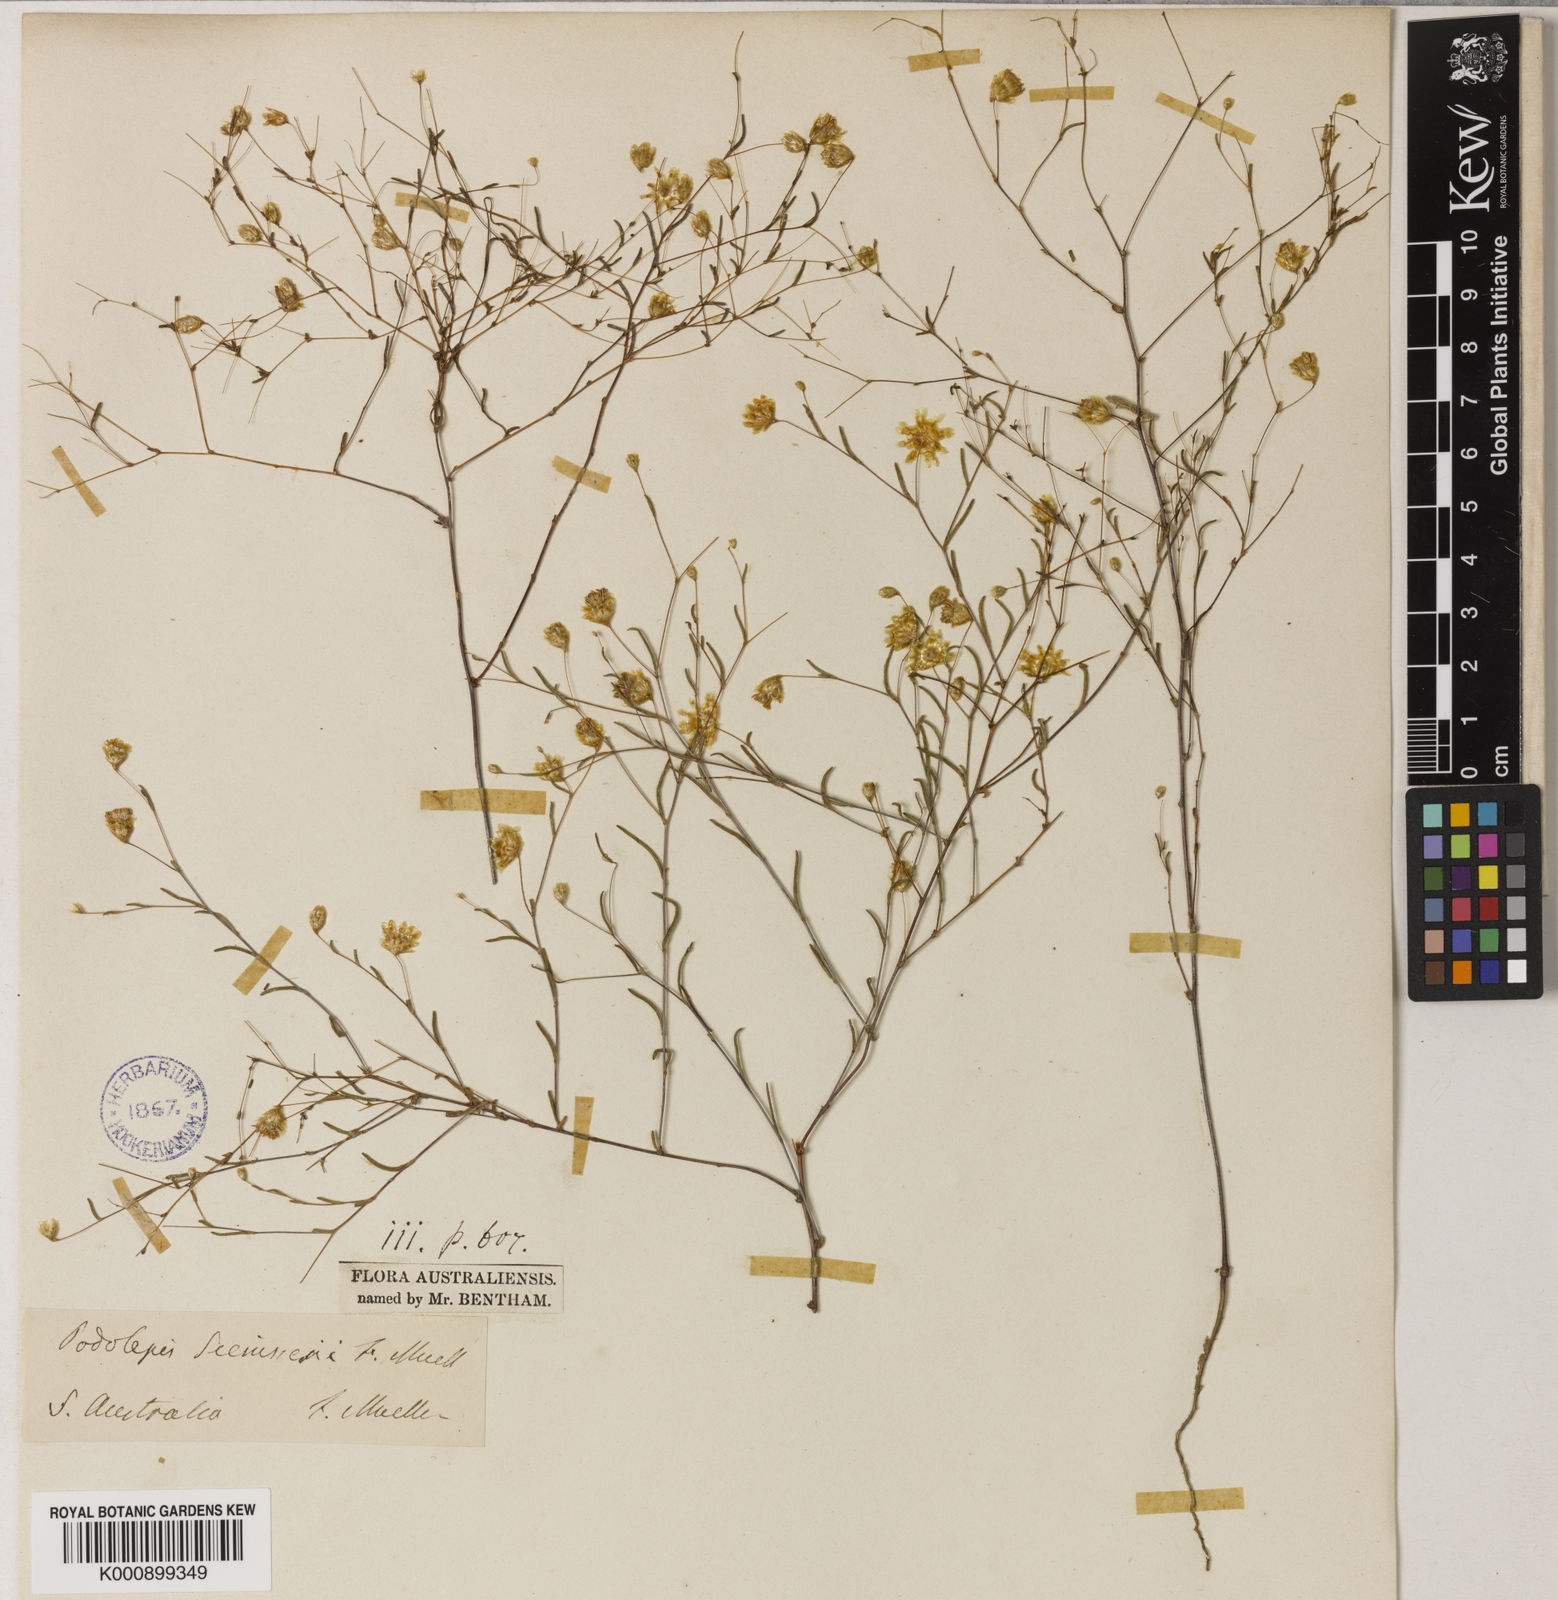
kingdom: Plantae
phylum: Tracheophyta
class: Magnoliopsida
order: Asterales
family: Asteraceae
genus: Siemssenia
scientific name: Siemssenia capillaris
